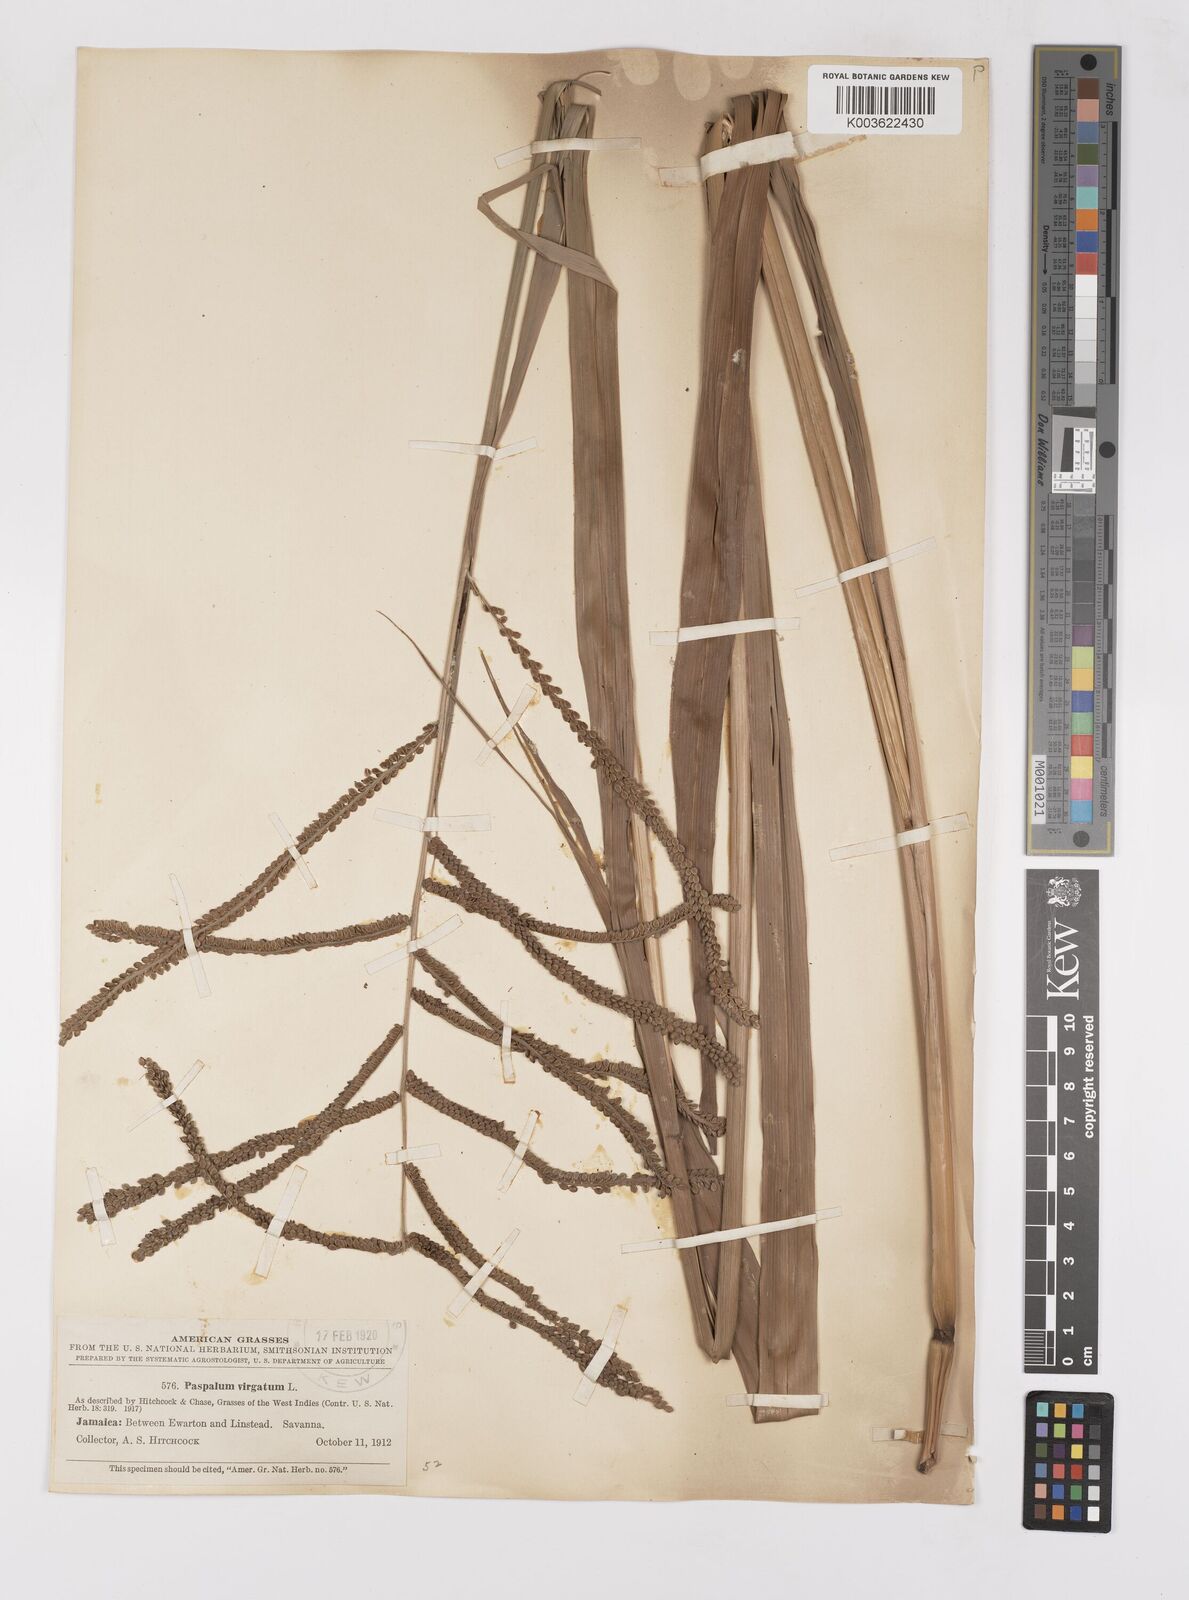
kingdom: Plantae
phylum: Tracheophyta
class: Liliopsida
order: Poales
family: Poaceae
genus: Paspalum
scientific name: Paspalum virgatum
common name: Talquezal
